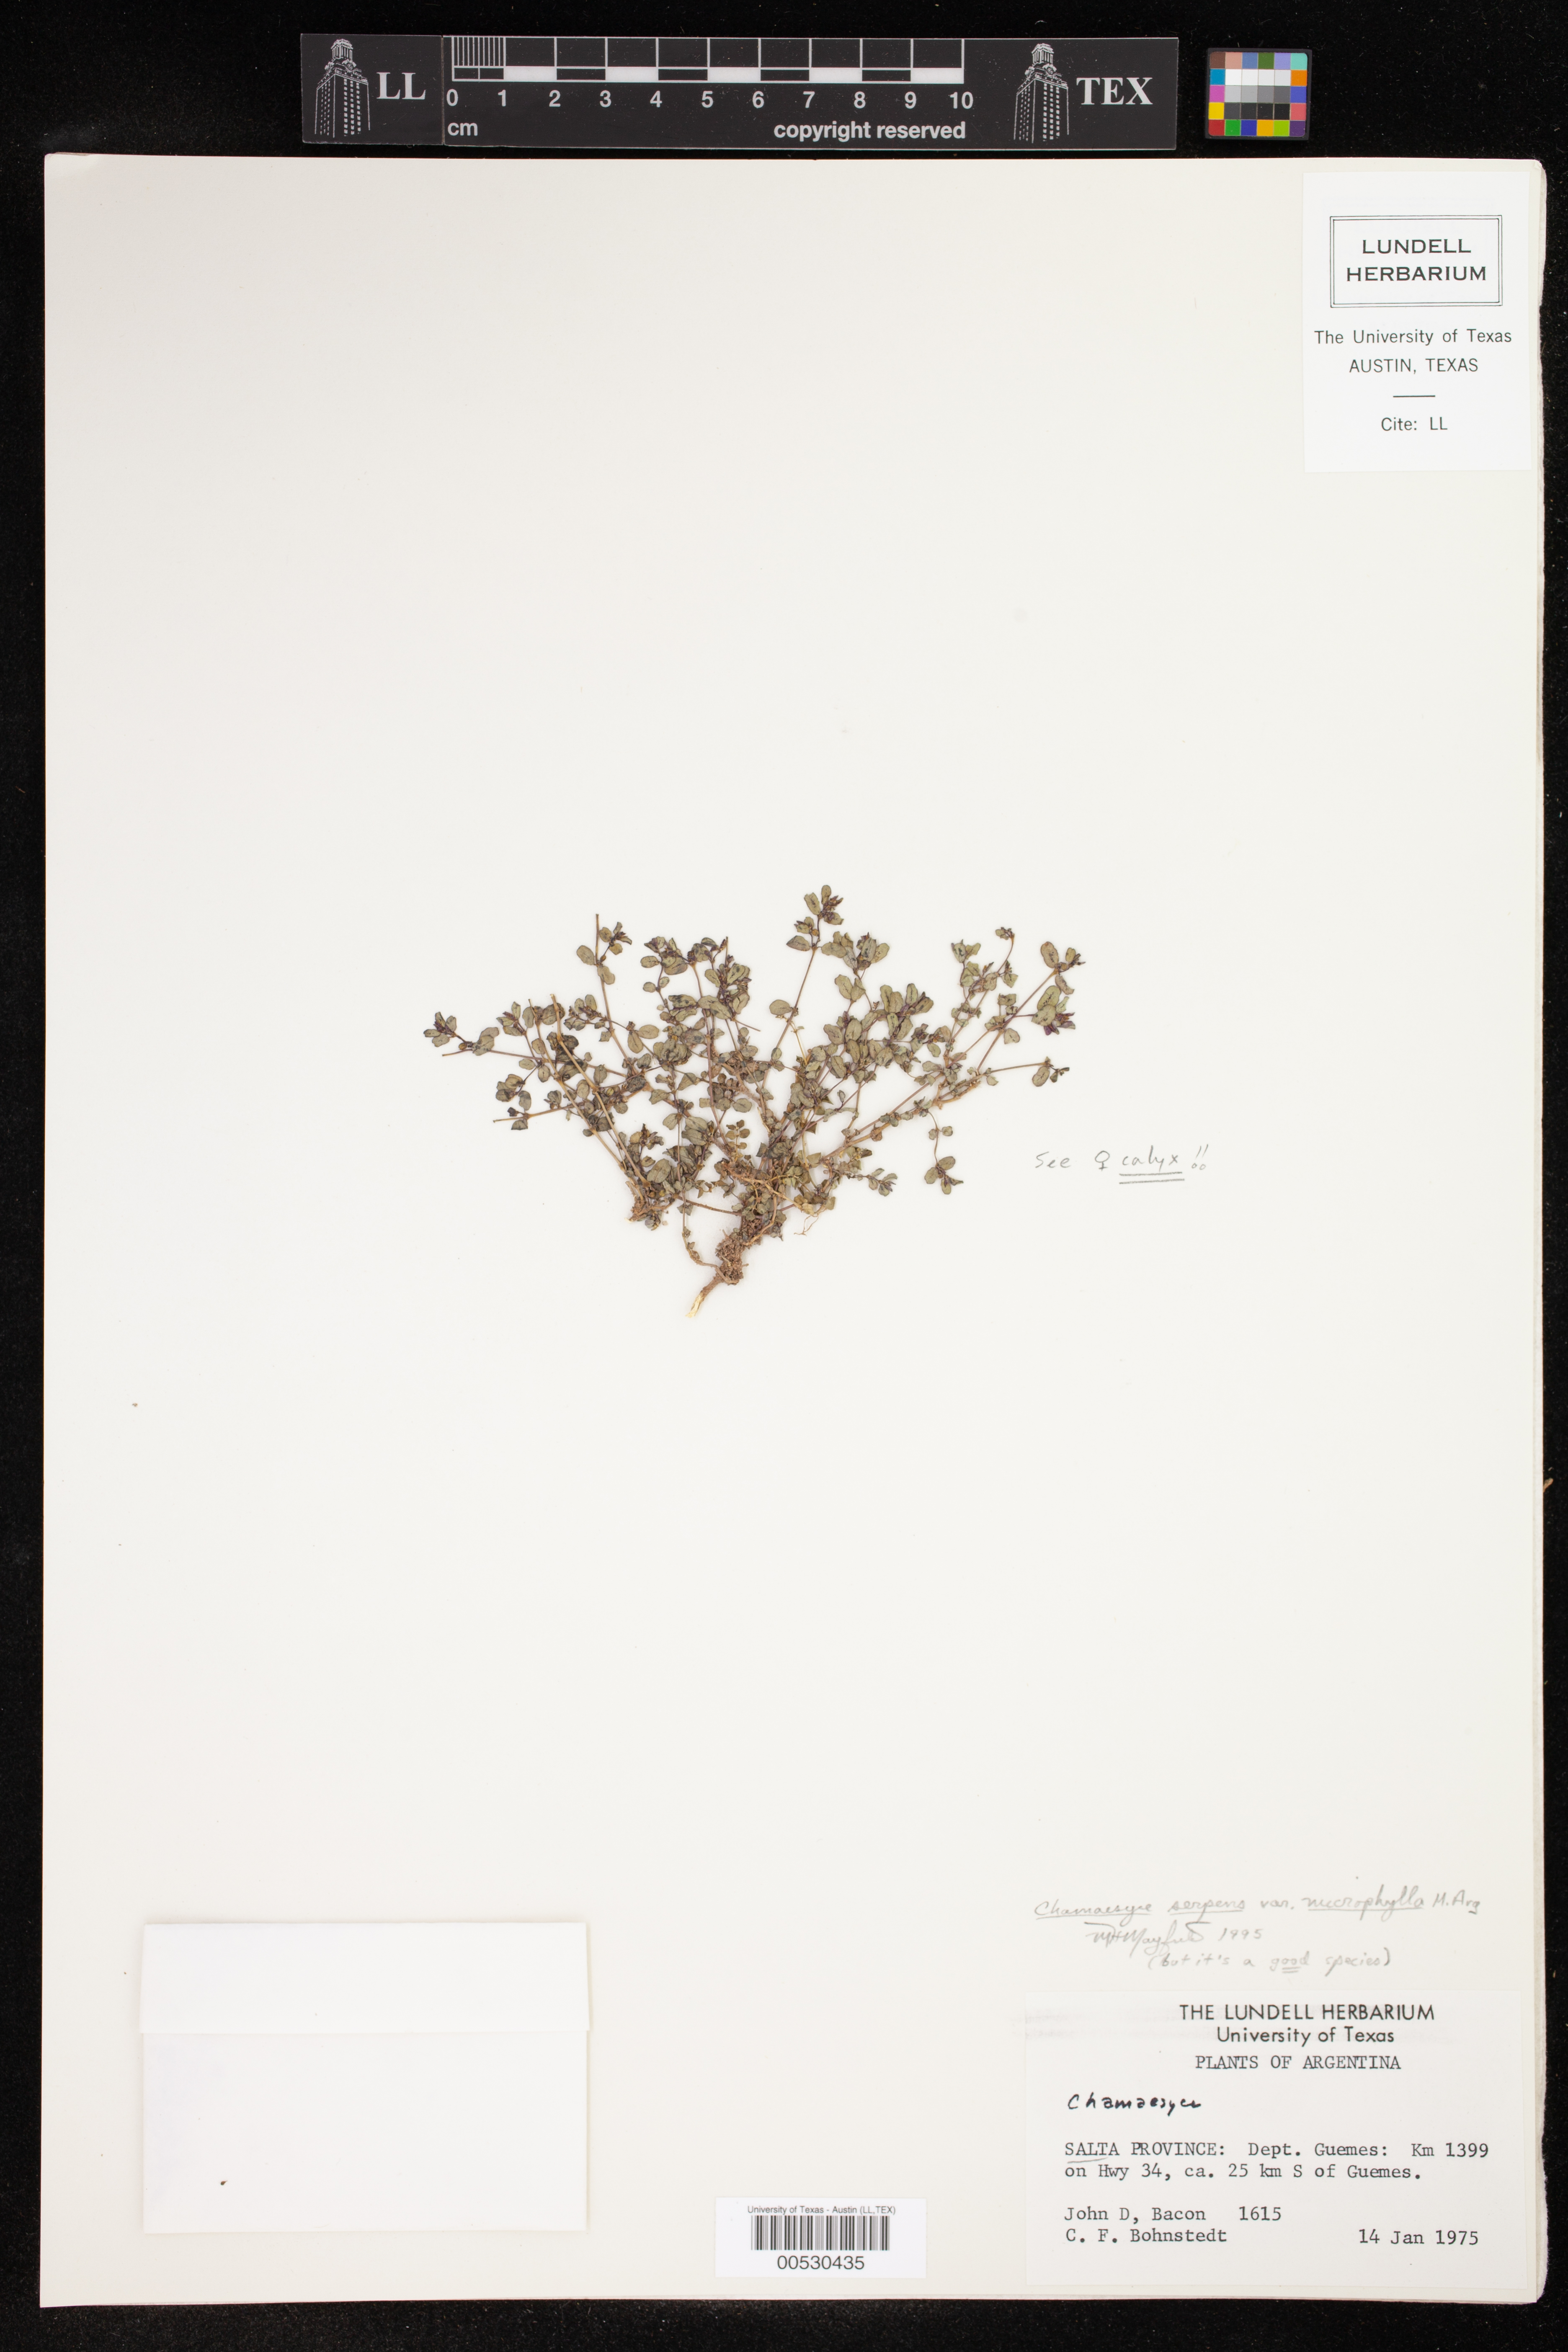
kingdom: Plantae
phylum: Tracheophyta
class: Magnoliopsida
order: Malpighiales
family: Euphorbiaceae
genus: Euphorbia
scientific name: Euphorbia serpens
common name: Matted sandmat
